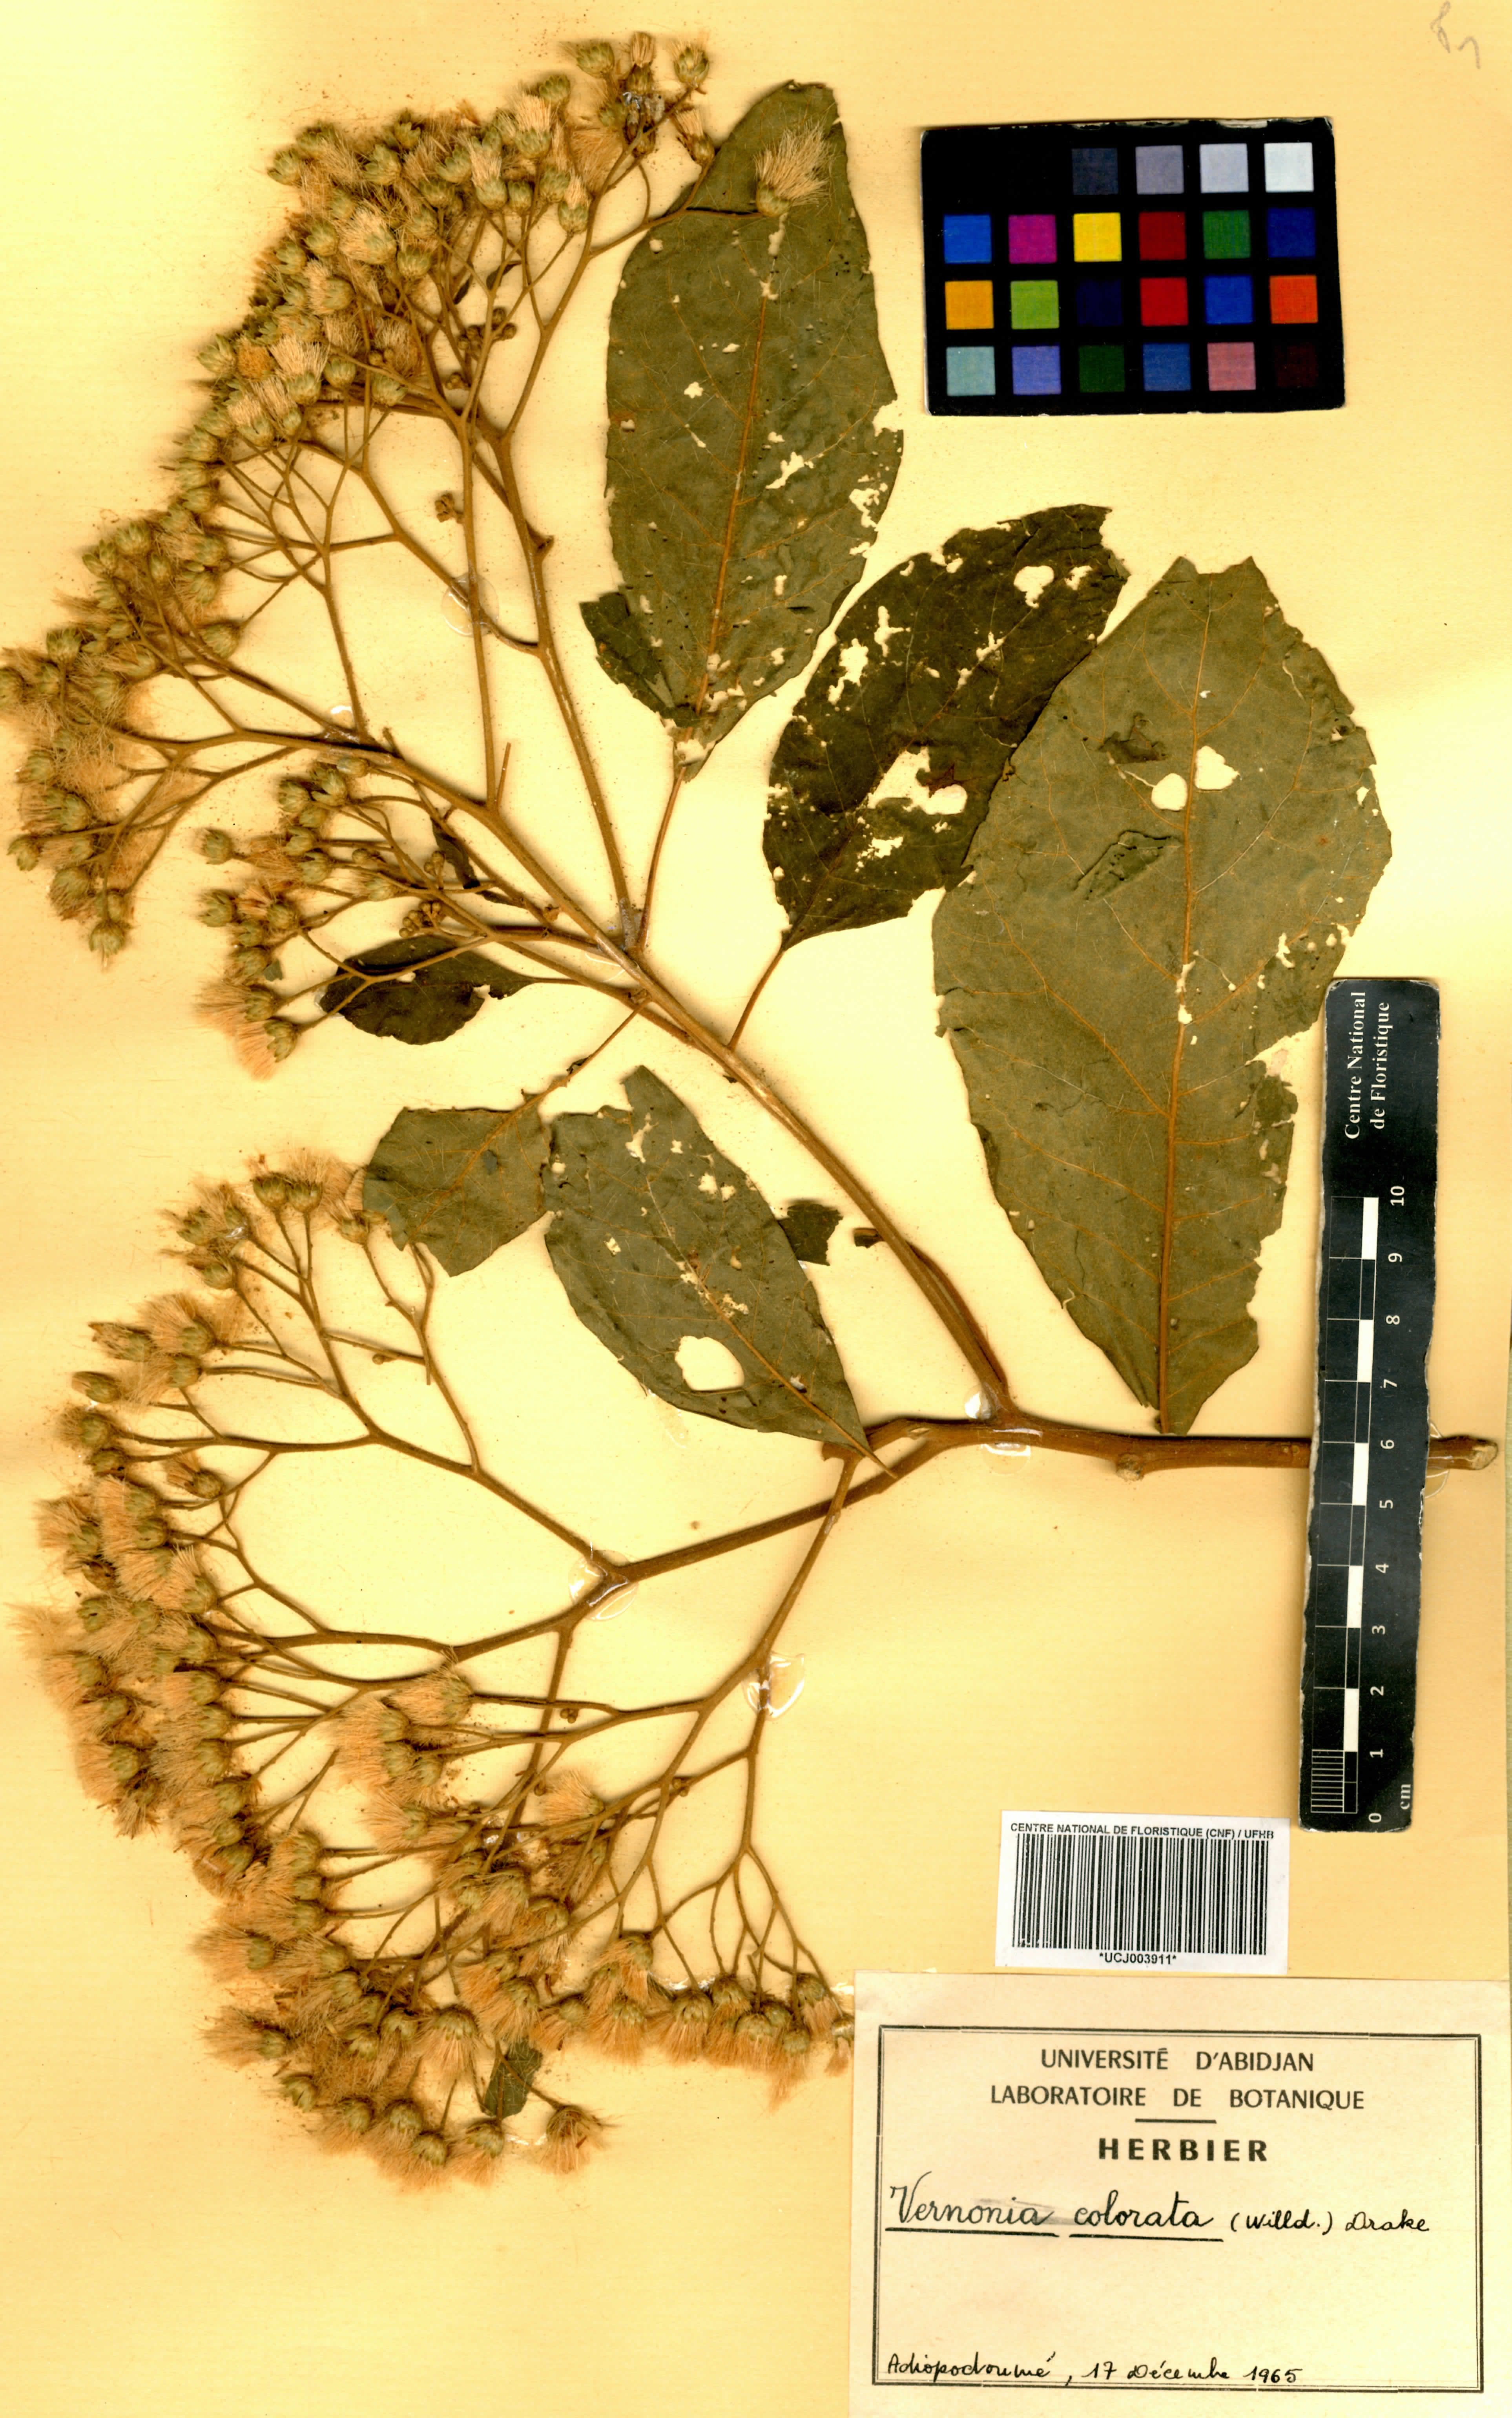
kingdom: Plantae
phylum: Tracheophyta
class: Magnoliopsida
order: Asterales
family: Asteraceae
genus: Vernonia
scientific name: Vernonia colorata
